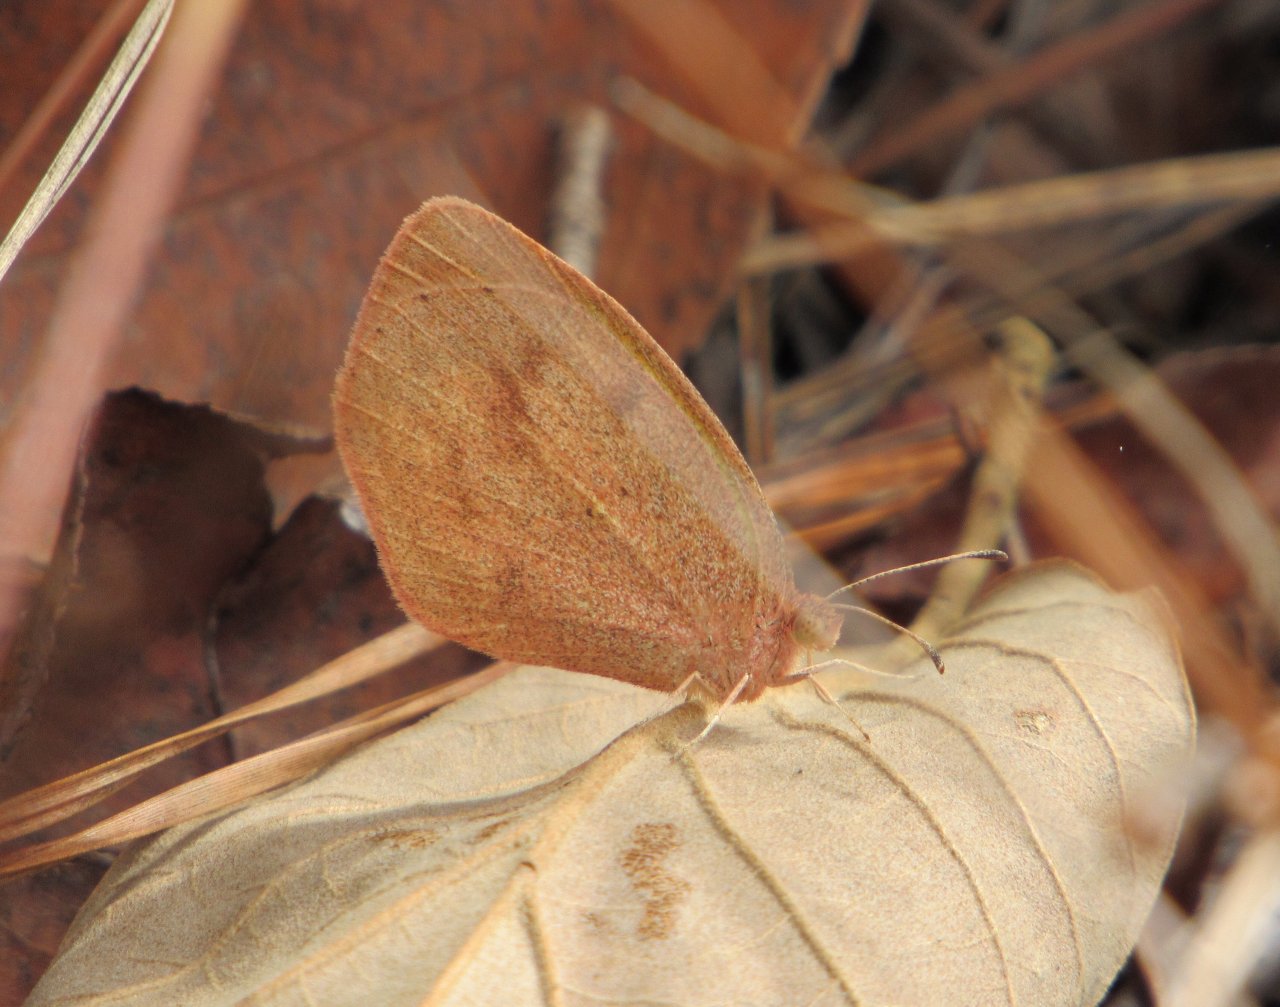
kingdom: Animalia
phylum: Arthropoda
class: Insecta
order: Lepidoptera
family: Pieridae
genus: Eurema
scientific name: Eurema daira
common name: Barred Yellow
